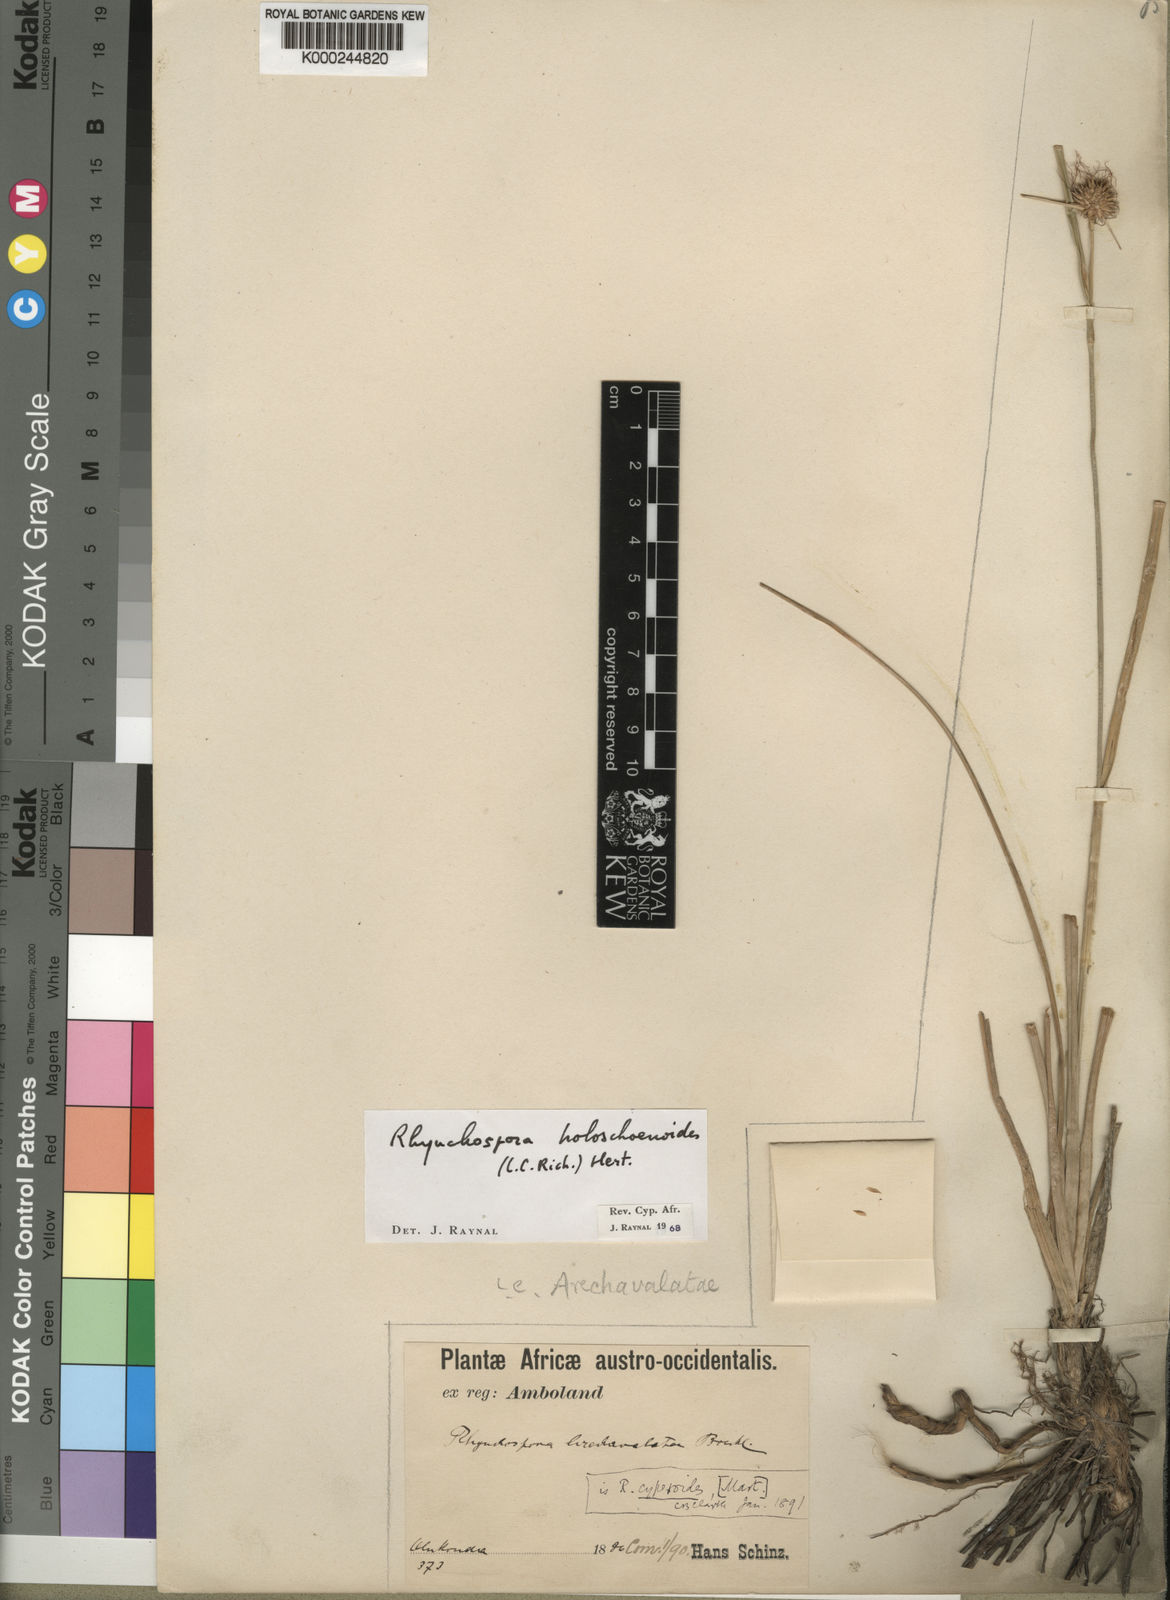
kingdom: Plantae
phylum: Tracheophyta
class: Liliopsida
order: Poales
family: Cyperaceae
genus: Rhynchospora
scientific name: Rhynchospora holoschoenoides
